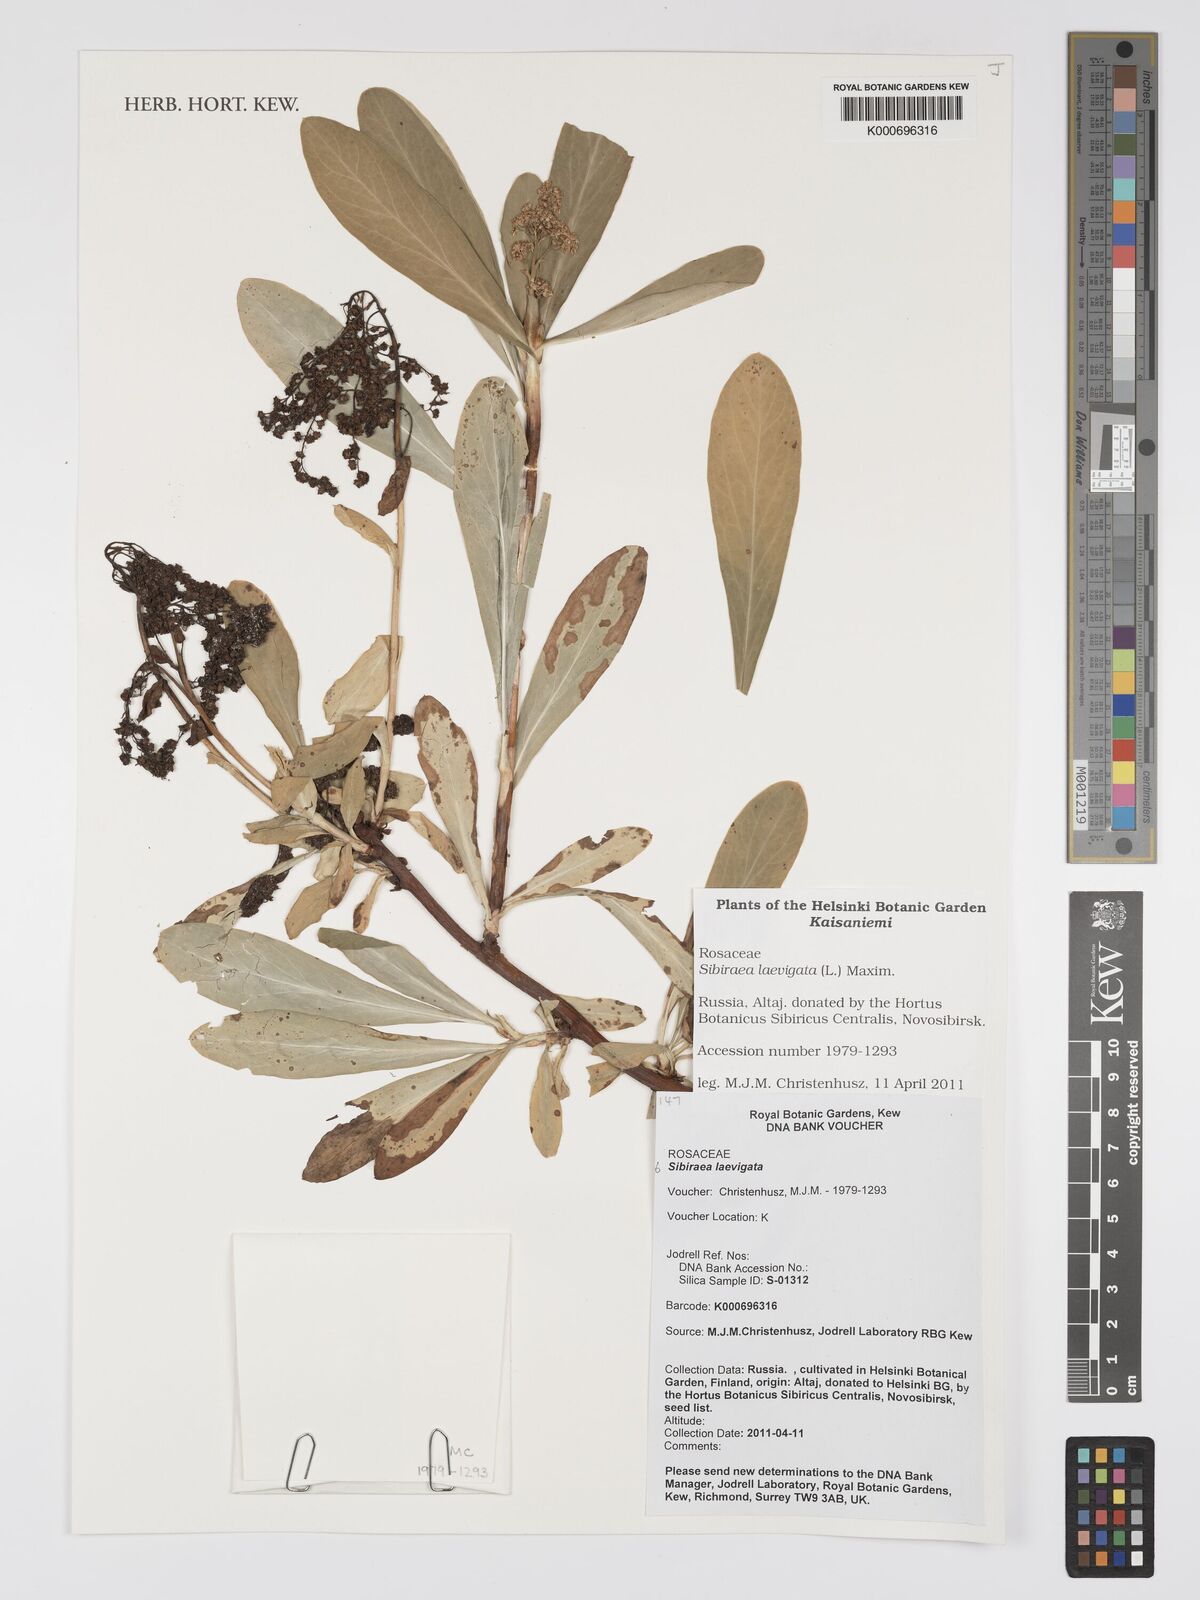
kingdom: Plantae
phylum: Tracheophyta
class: Magnoliopsida
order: Rosales
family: Rosaceae
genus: Sibiraea
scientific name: Sibiraea laevigata
